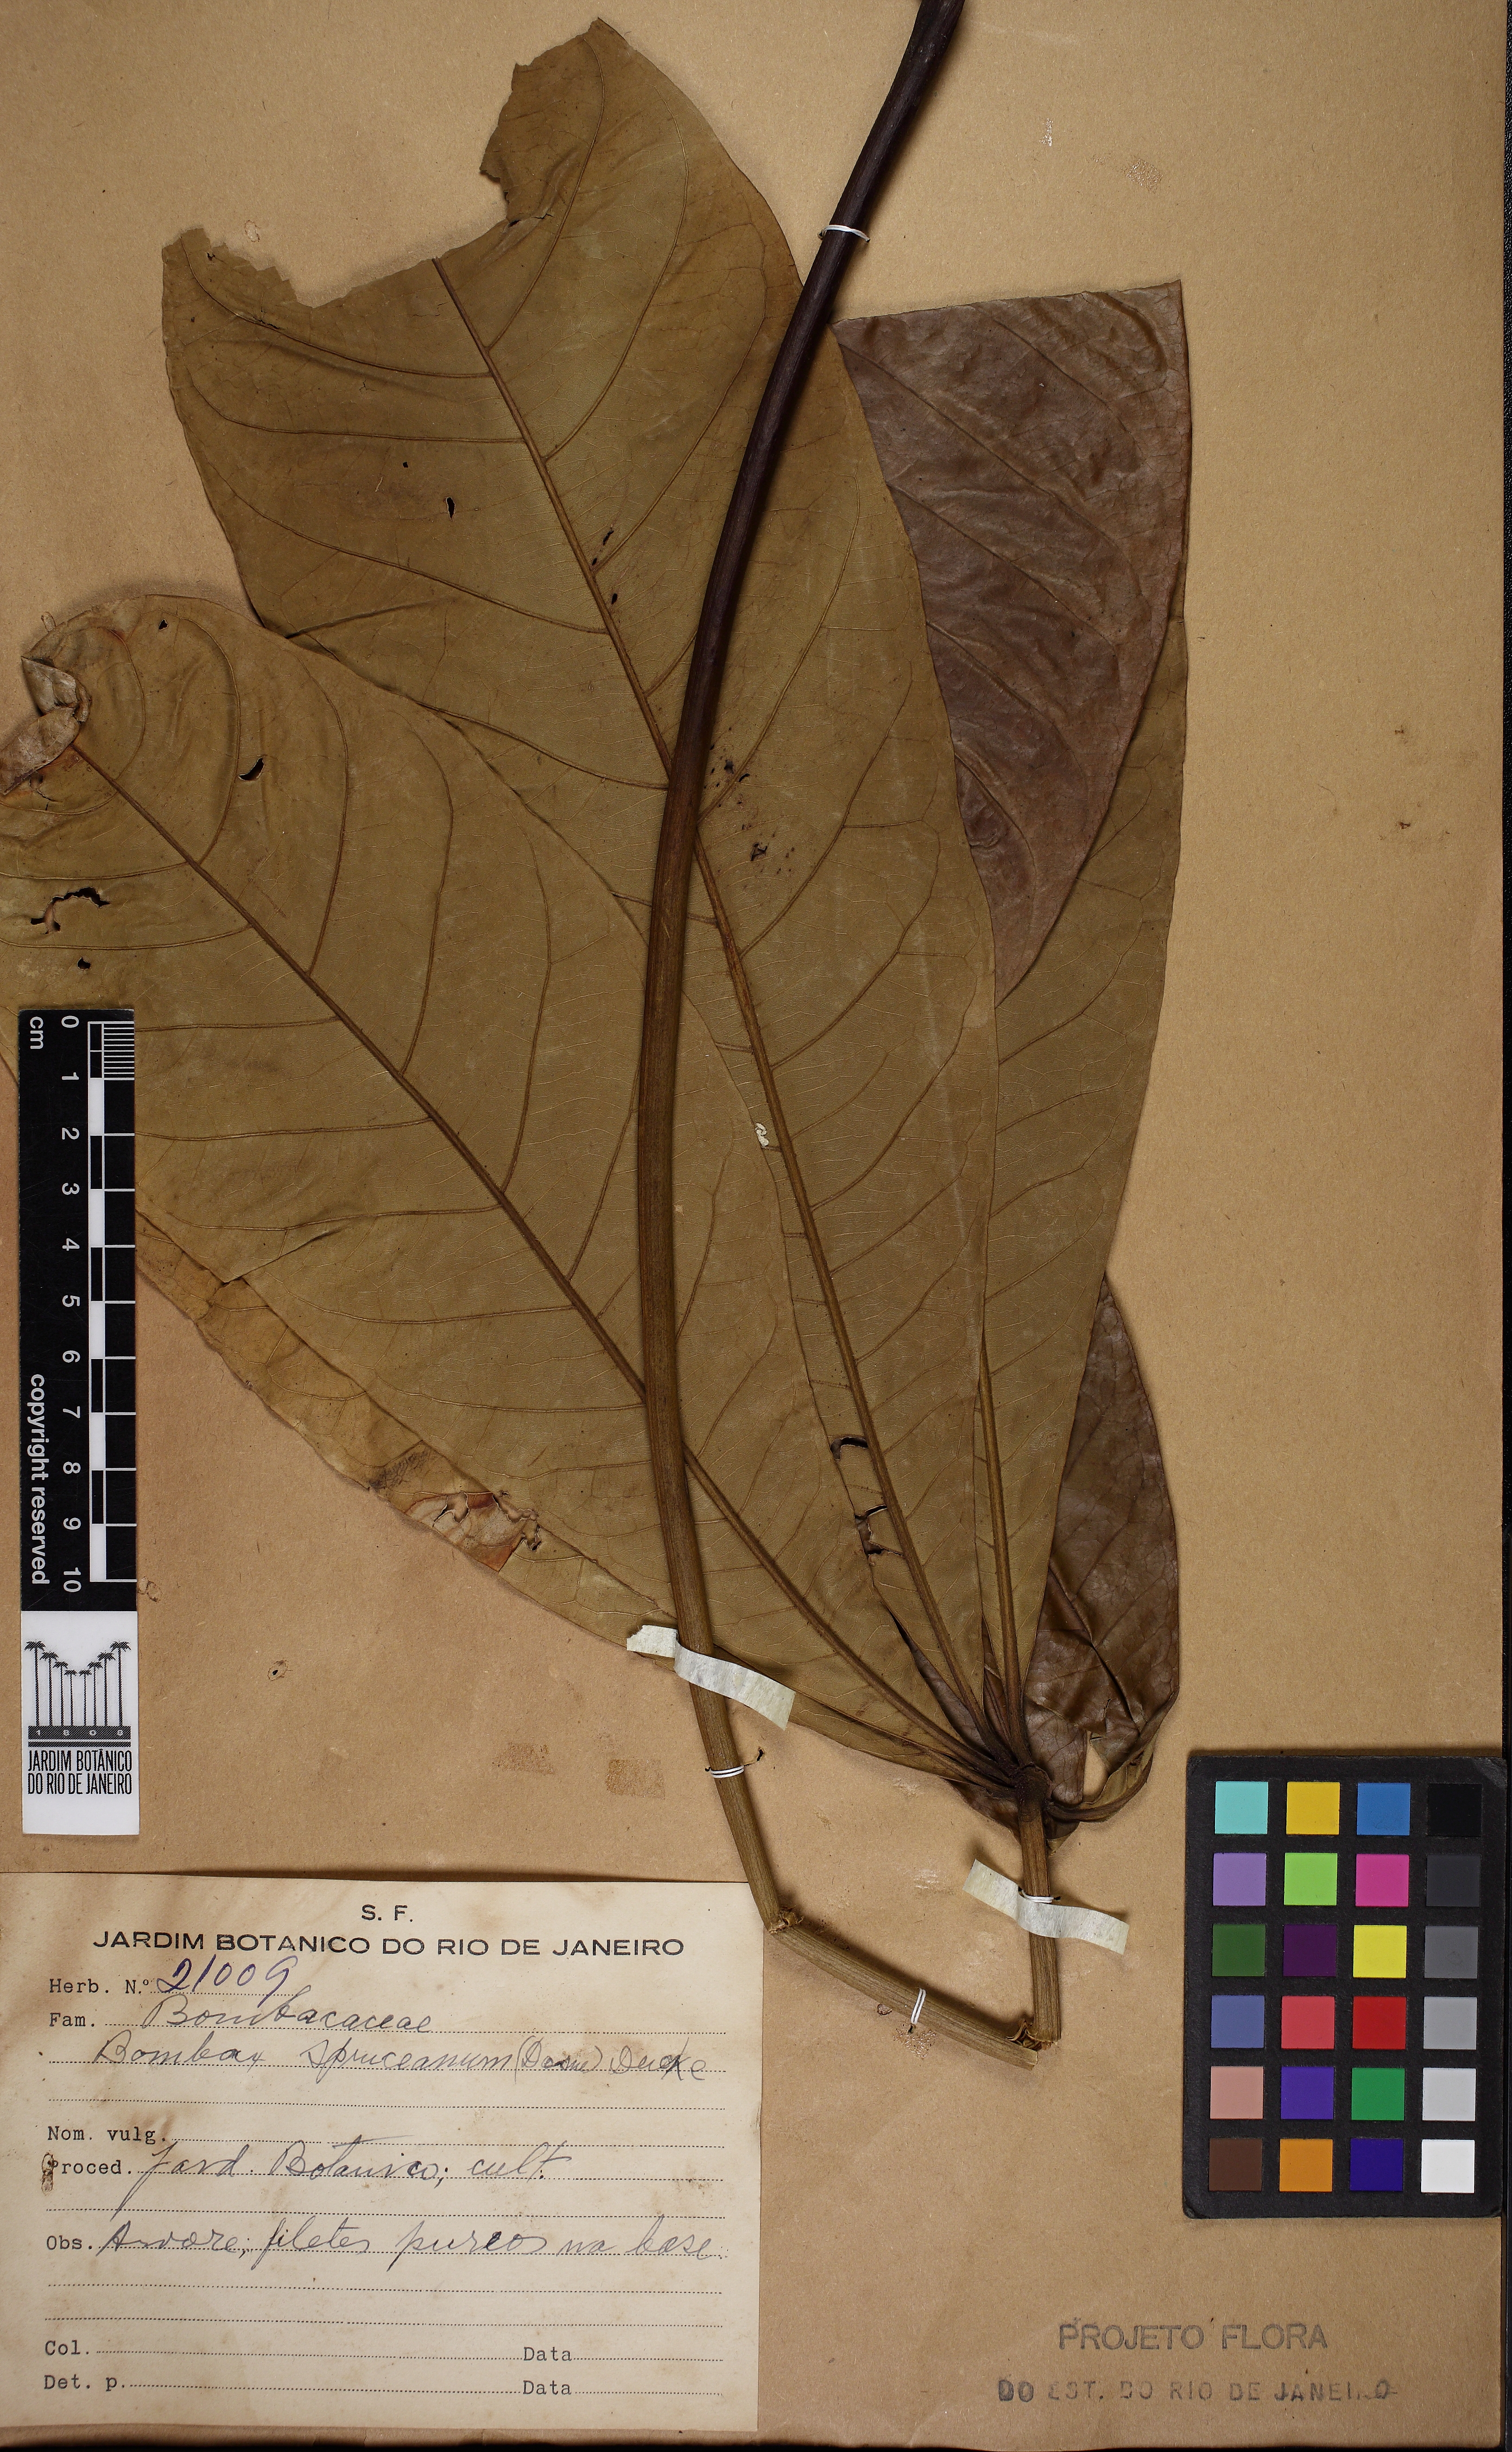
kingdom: Plantae
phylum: Tracheophyta
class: Magnoliopsida
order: Malvales
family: Malvaceae
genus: Pachira
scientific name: Pachira insignis
